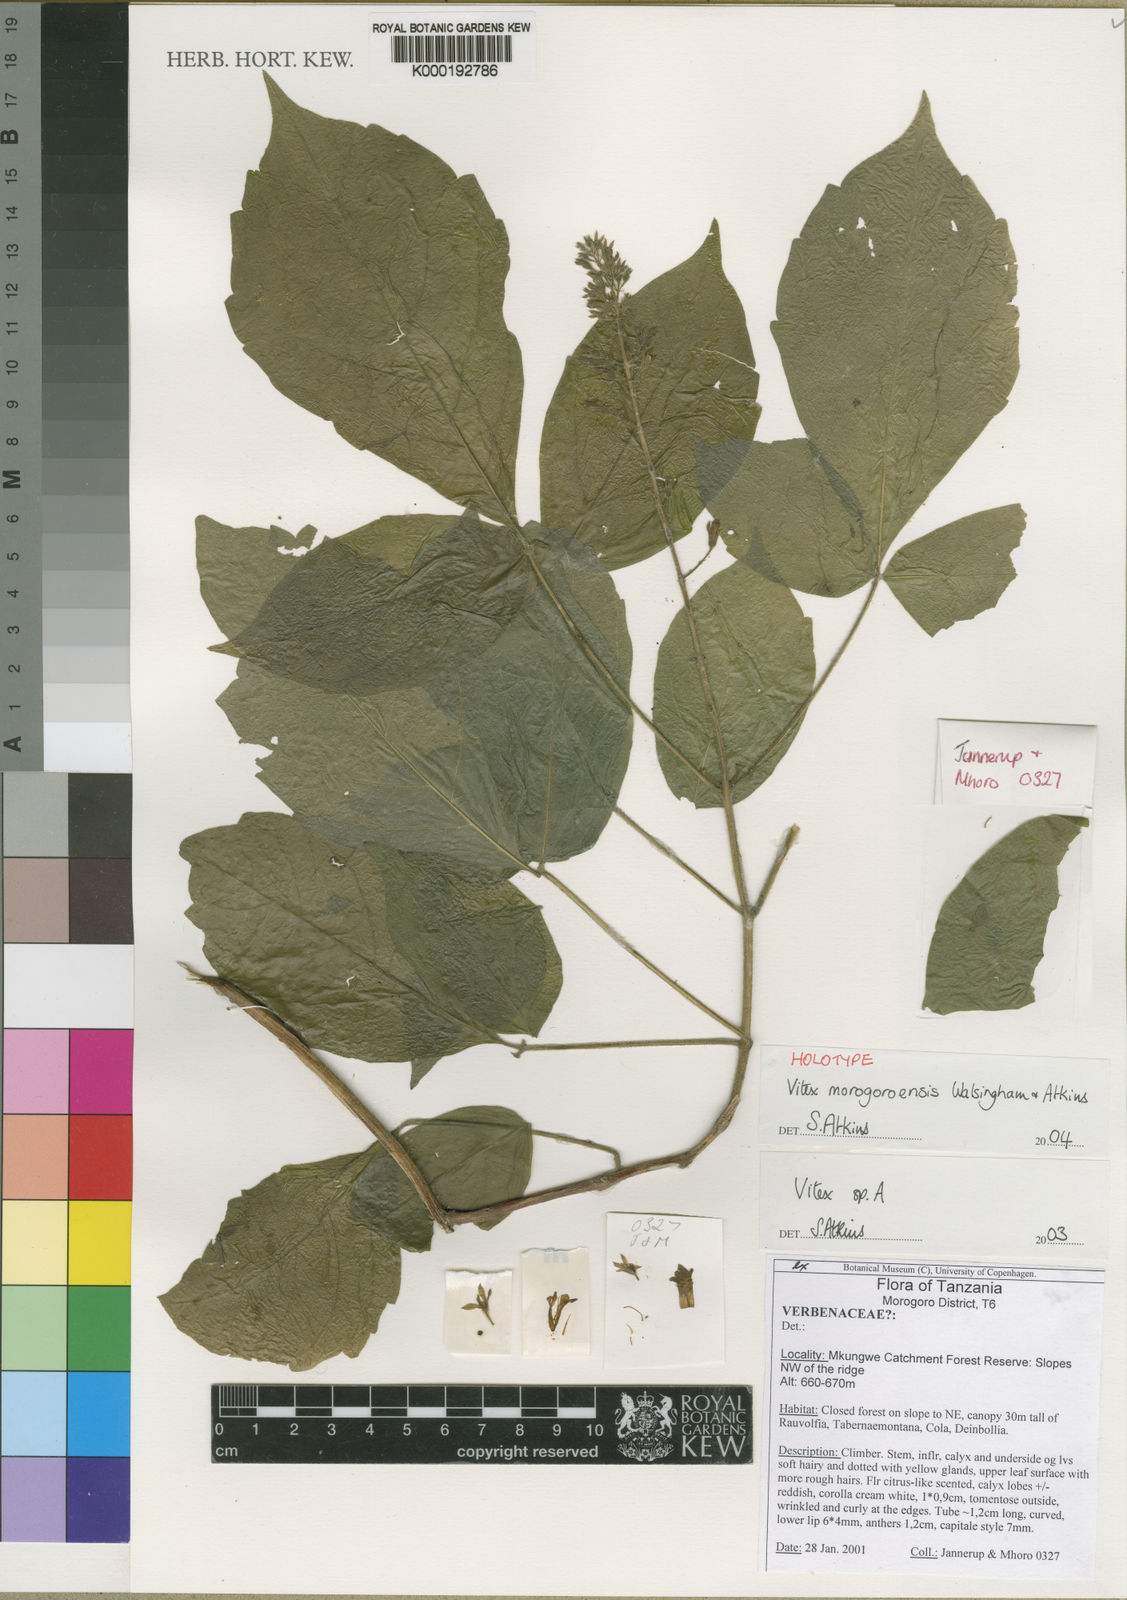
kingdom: Plantae
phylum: Tracheophyta
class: Magnoliopsida
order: Lamiales
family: Lamiaceae
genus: Vitex
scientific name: Vitex morogoroensis
